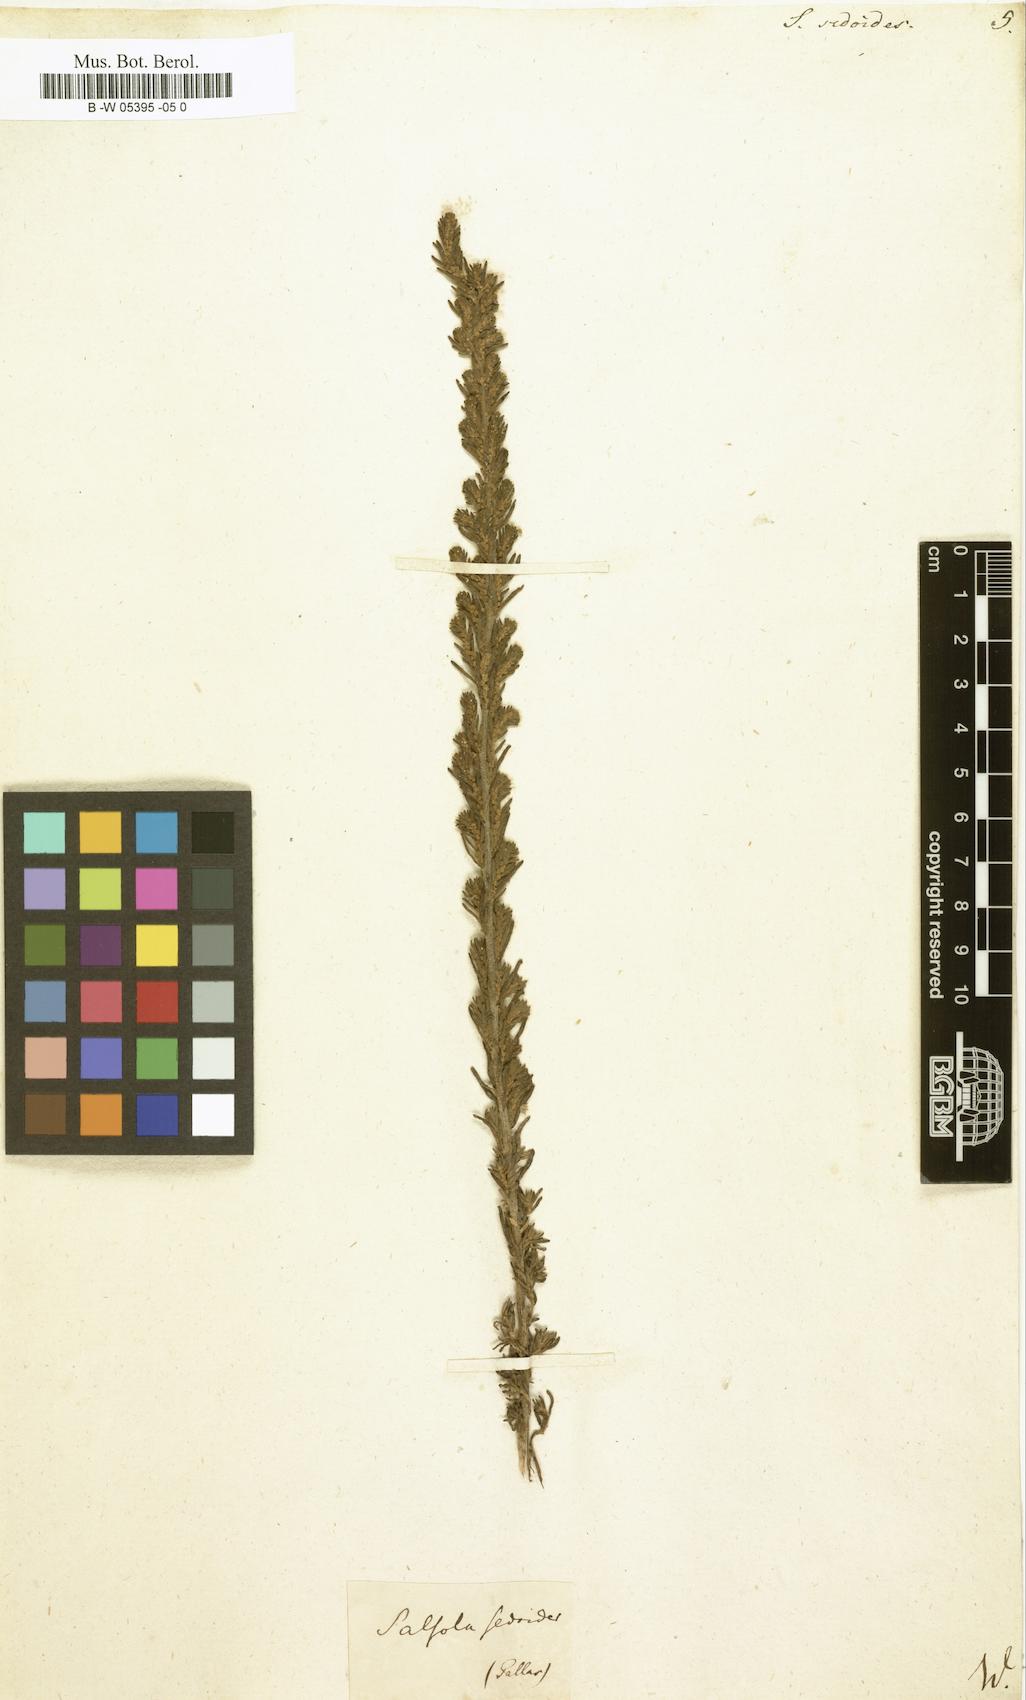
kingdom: Plantae
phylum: Tracheophyta
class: Magnoliopsida
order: Caryophyllales
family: Amaranthaceae
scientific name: Amaranthaceae
